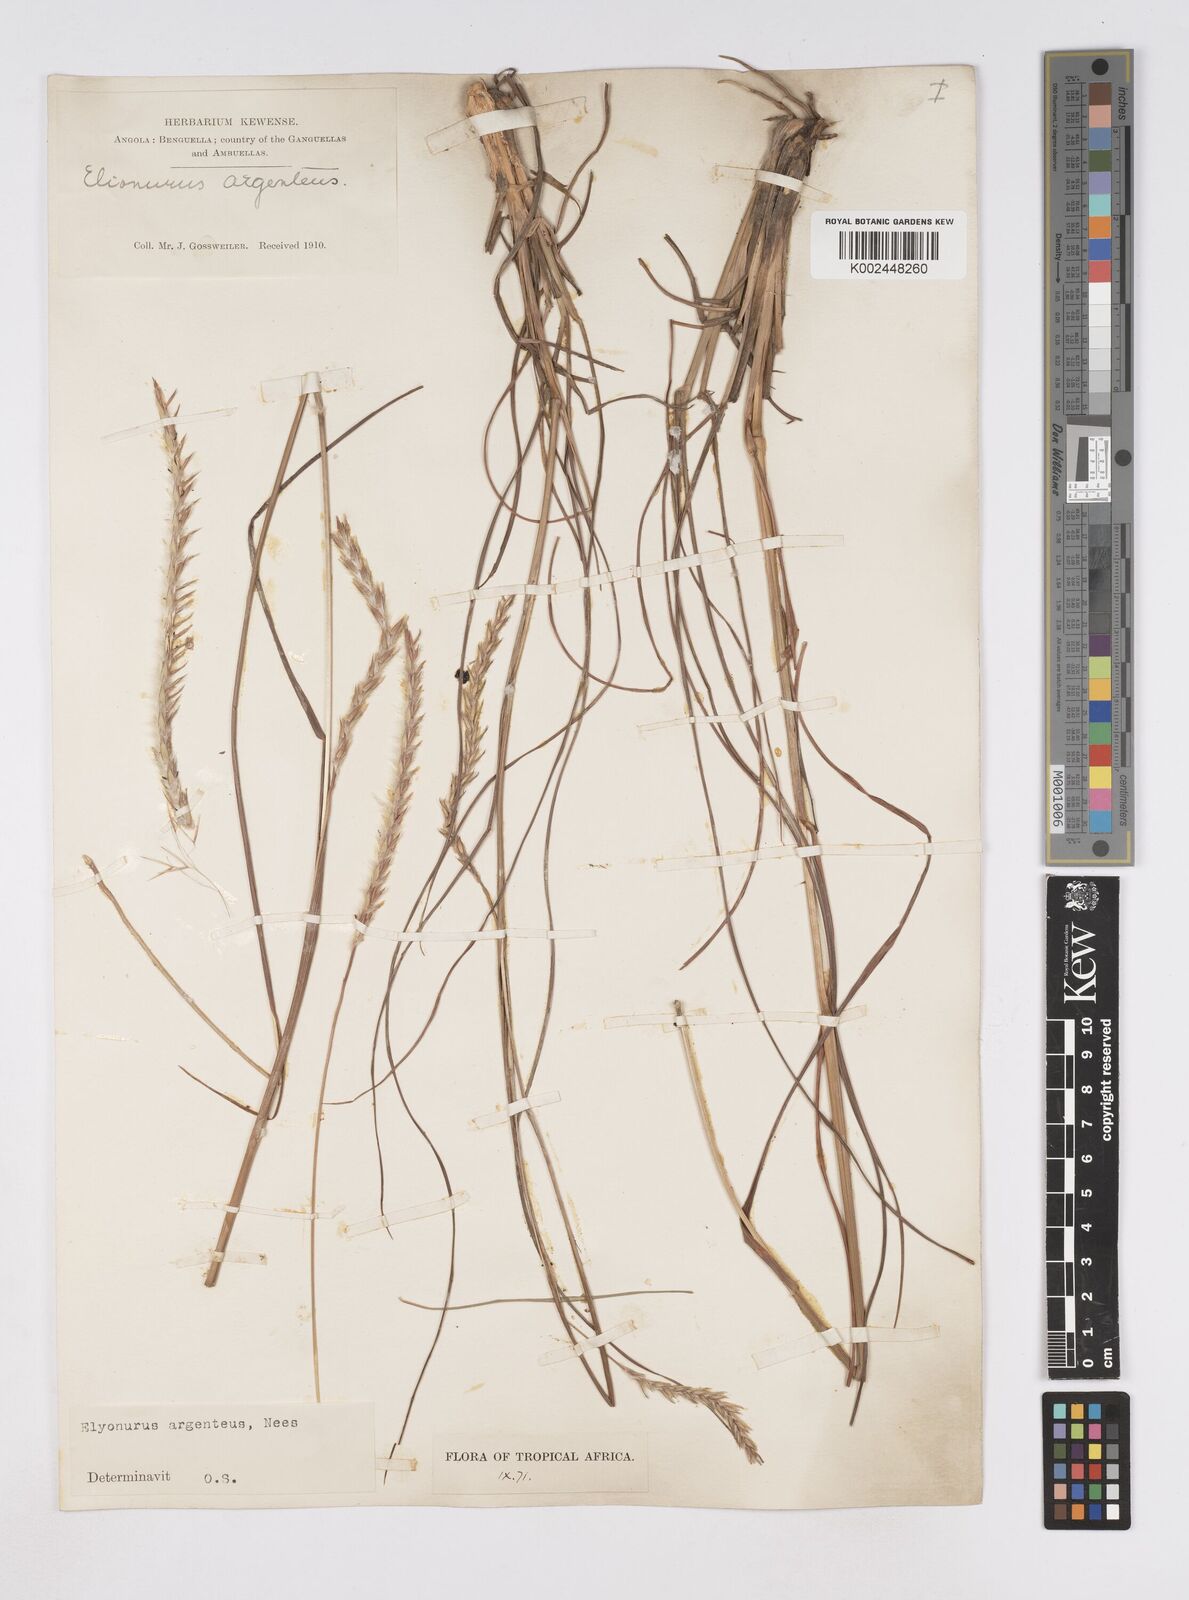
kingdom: Plantae
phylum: Tracheophyta
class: Liliopsida
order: Poales
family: Poaceae
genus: Elionurus
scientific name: Elionurus muticus
